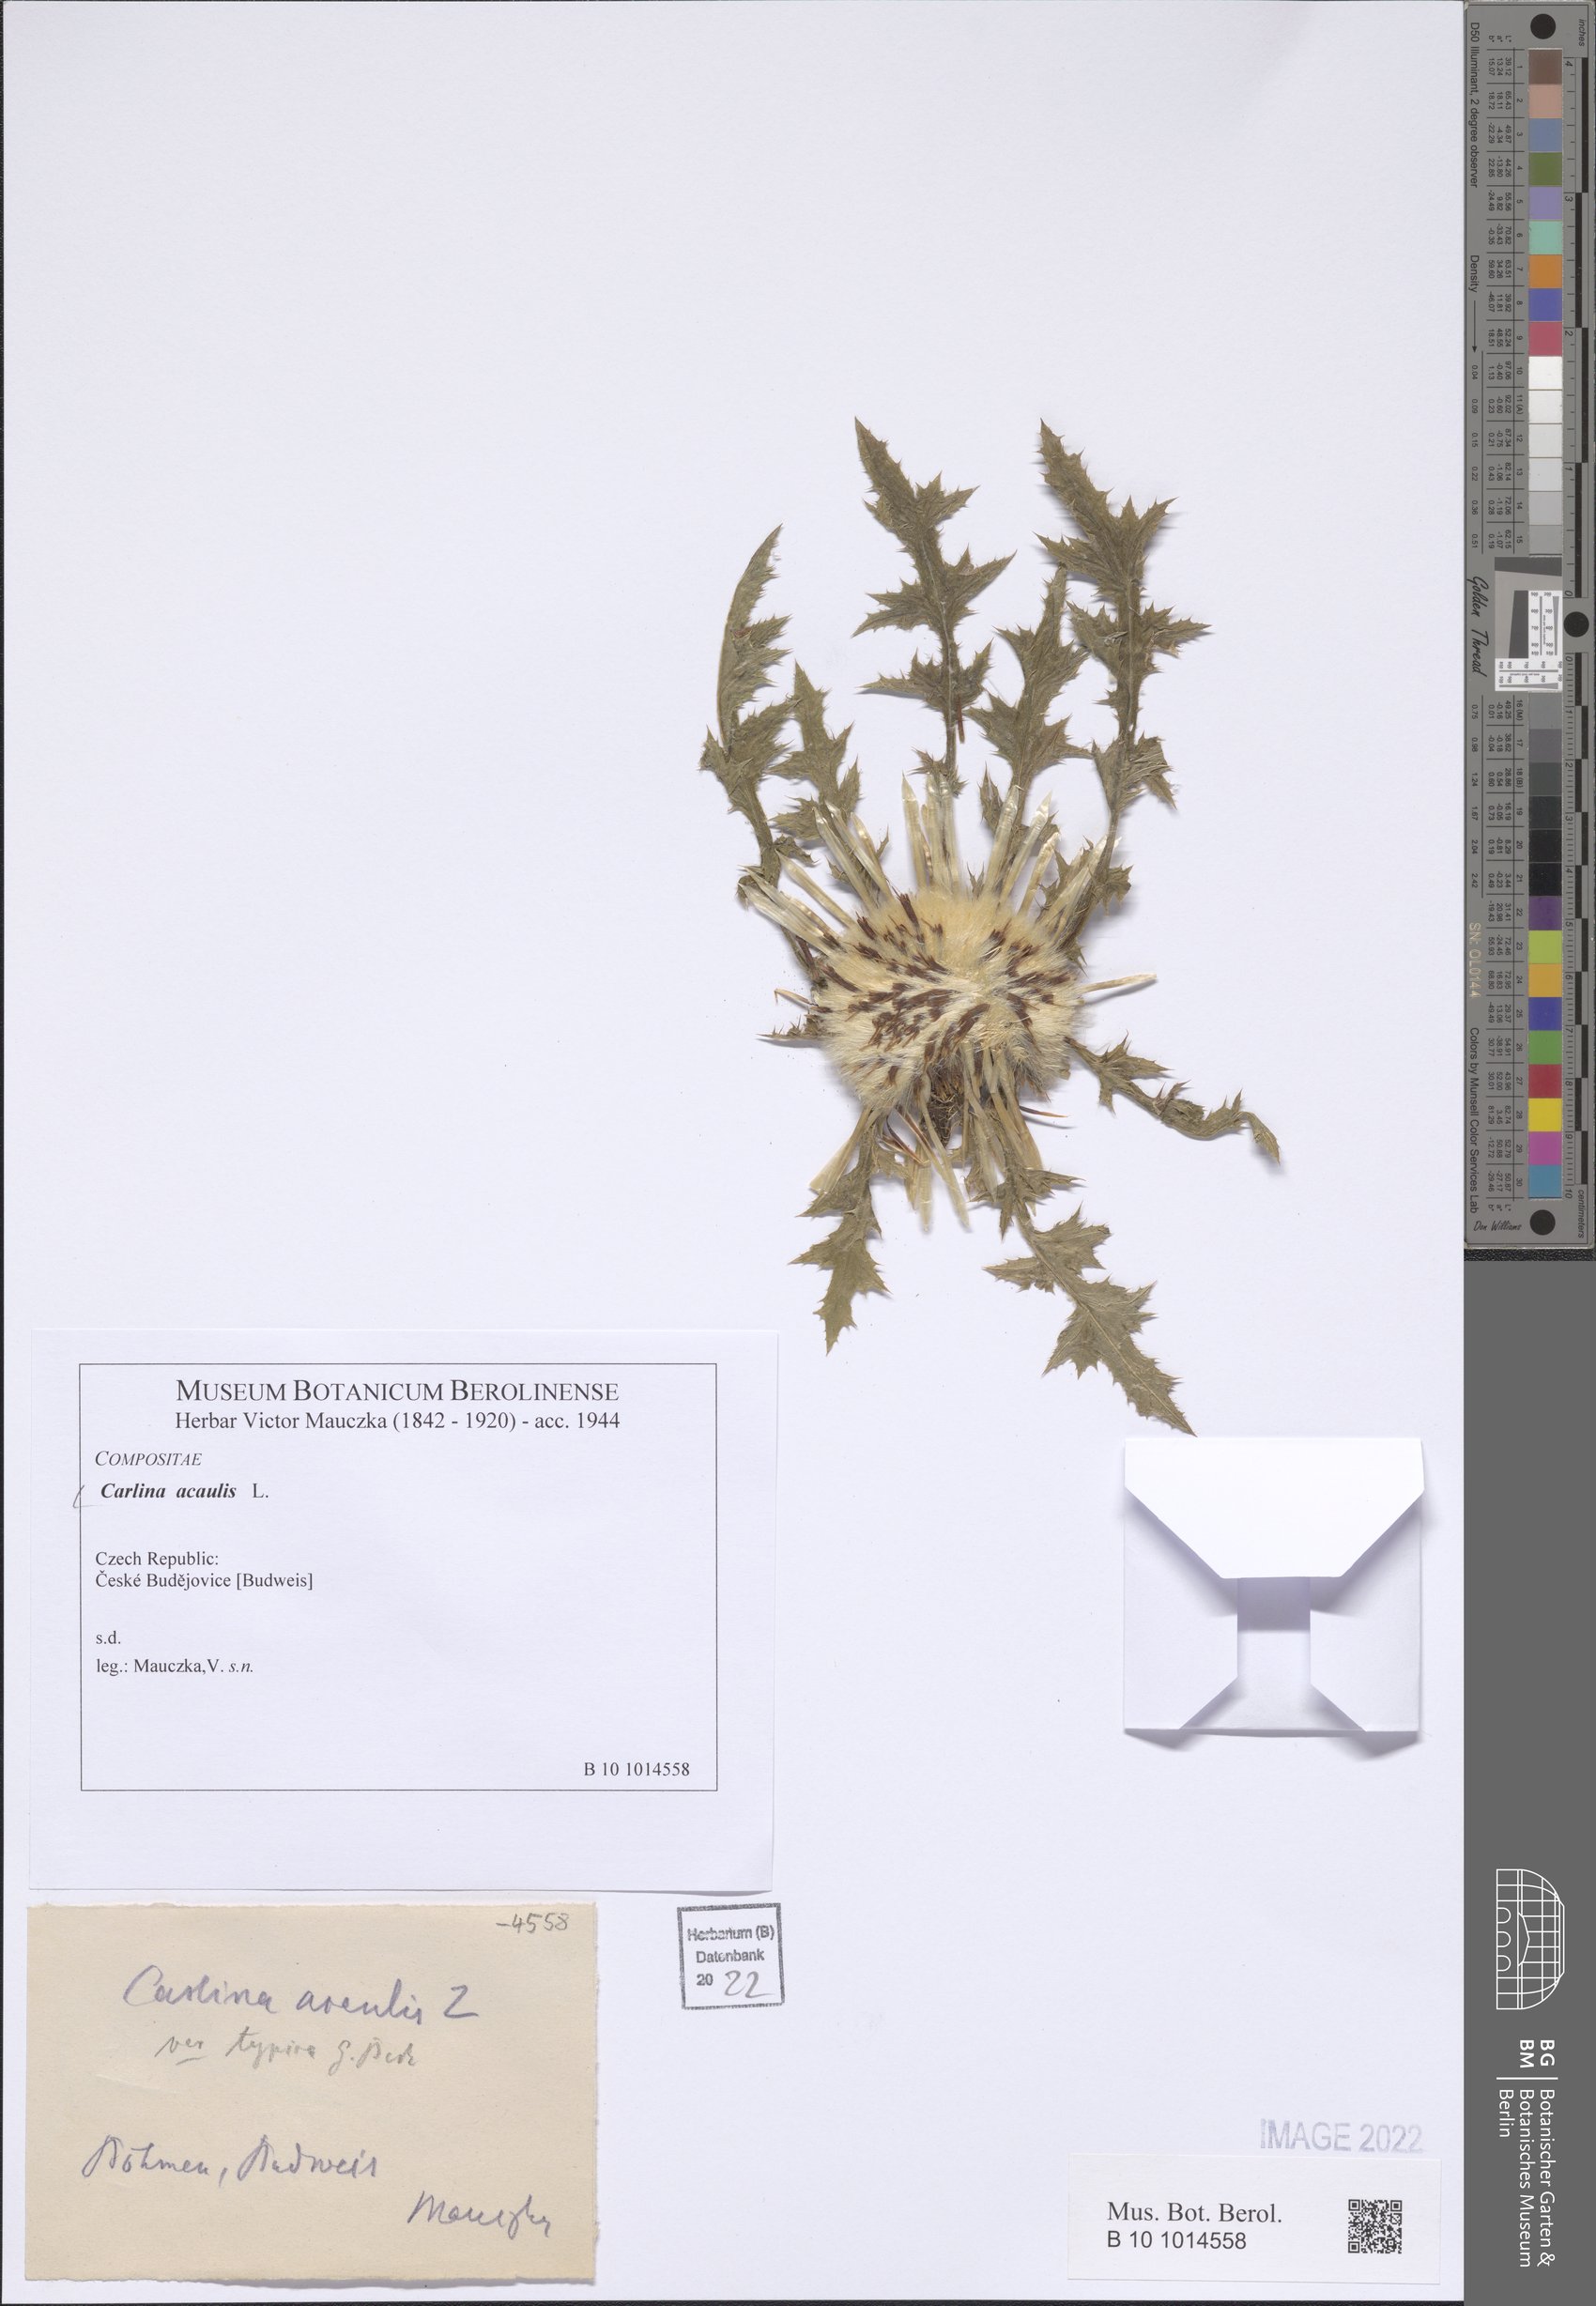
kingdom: Plantae
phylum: Tracheophyta
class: Magnoliopsida
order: Asterales
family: Asteraceae
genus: Carlina
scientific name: Carlina acaulis
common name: Stemless carline thistle
